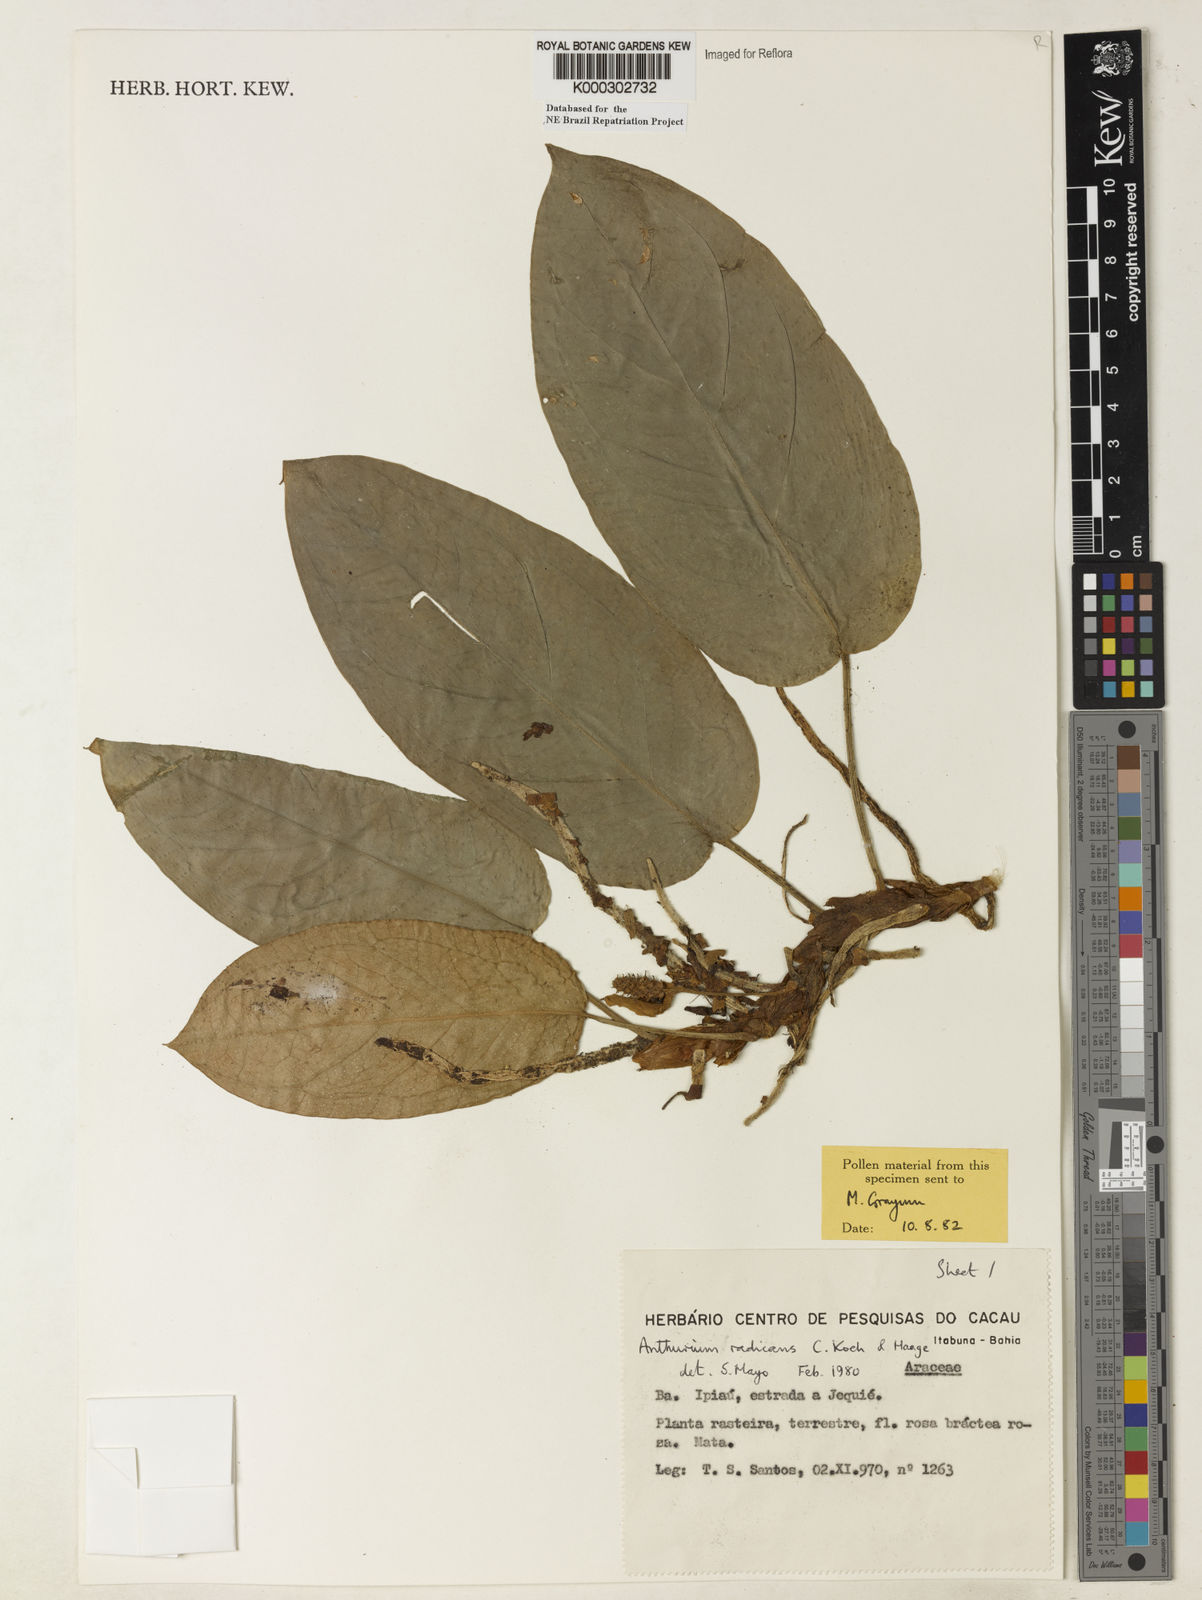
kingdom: Plantae
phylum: Tracheophyta
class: Liliopsida
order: Alismatales
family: Araceae
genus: Anthurium
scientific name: Anthurium radicans
